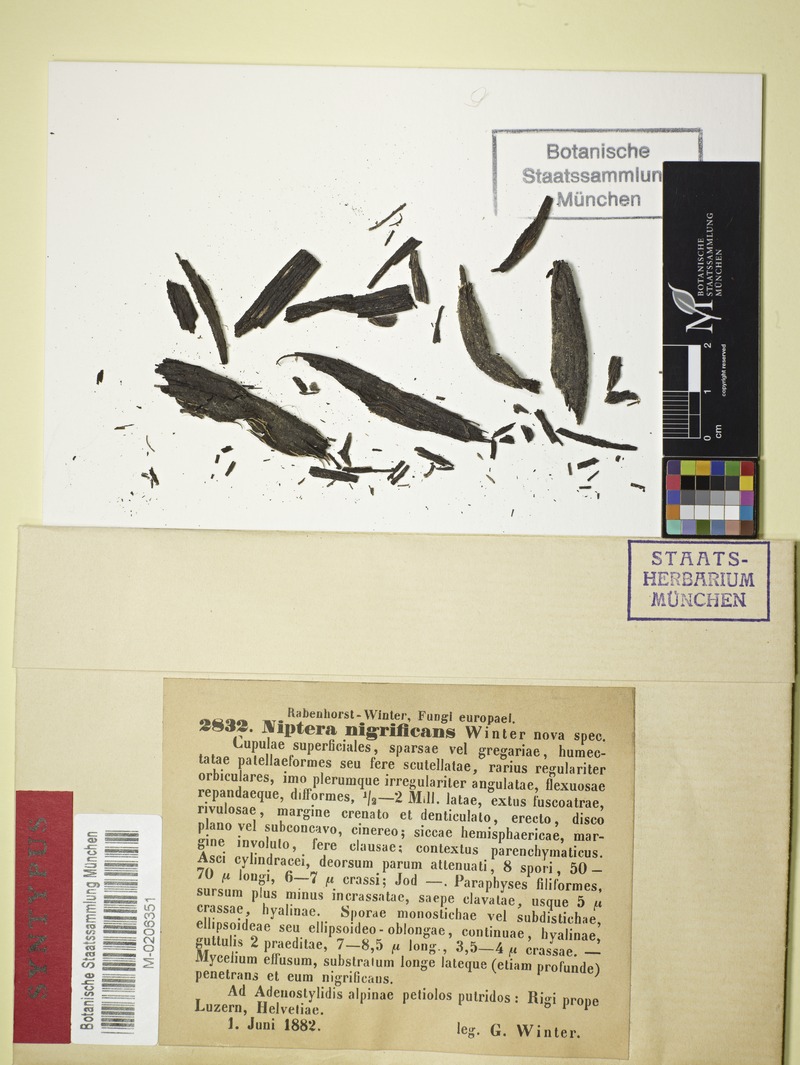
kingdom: Fungi
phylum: Ascomycota
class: Leotiomycetes
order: Helotiales
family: Mollisiaceae
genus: Tapesia
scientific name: Tapesia nigrificans
